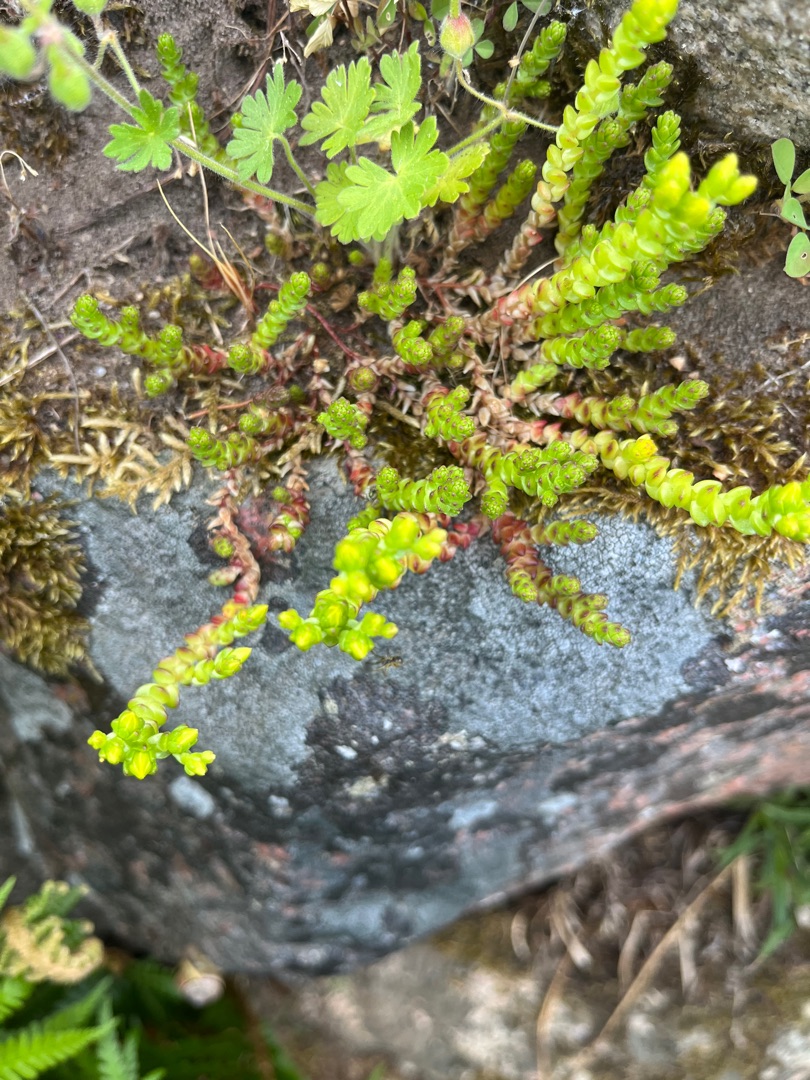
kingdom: Plantae
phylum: Tracheophyta
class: Magnoliopsida
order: Saxifragales
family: Crassulaceae
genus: Sedum
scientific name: Sedum acre
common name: Bidende stenurt
